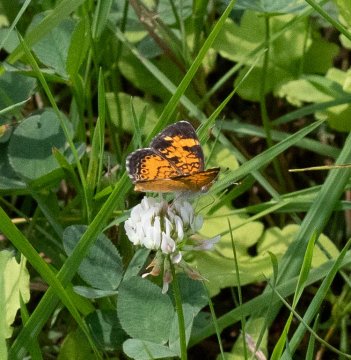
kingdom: Animalia
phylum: Arthropoda
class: Insecta
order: Lepidoptera
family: Nymphalidae
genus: Phyciodes
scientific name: Phyciodes
